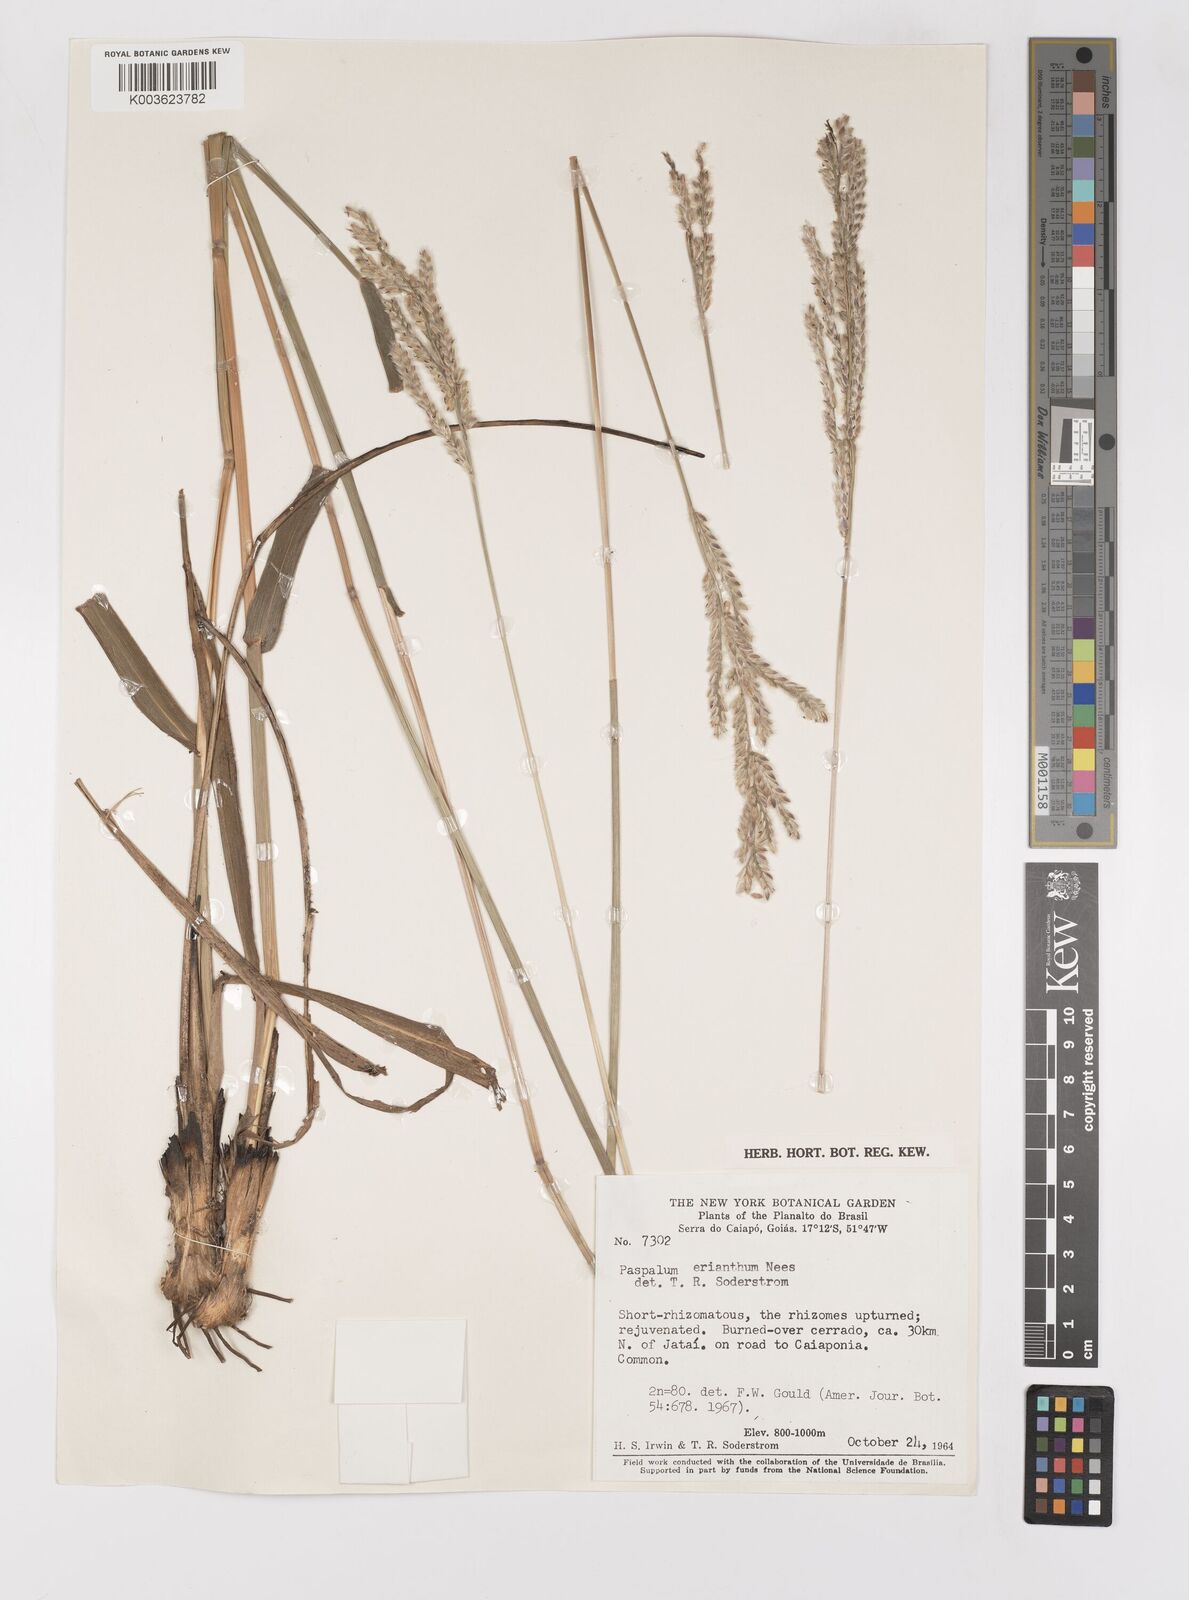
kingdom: Plantae
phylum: Tracheophyta
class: Liliopsida
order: Poales
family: Poaceae
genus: Paspalum
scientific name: Paspalum erianthum
